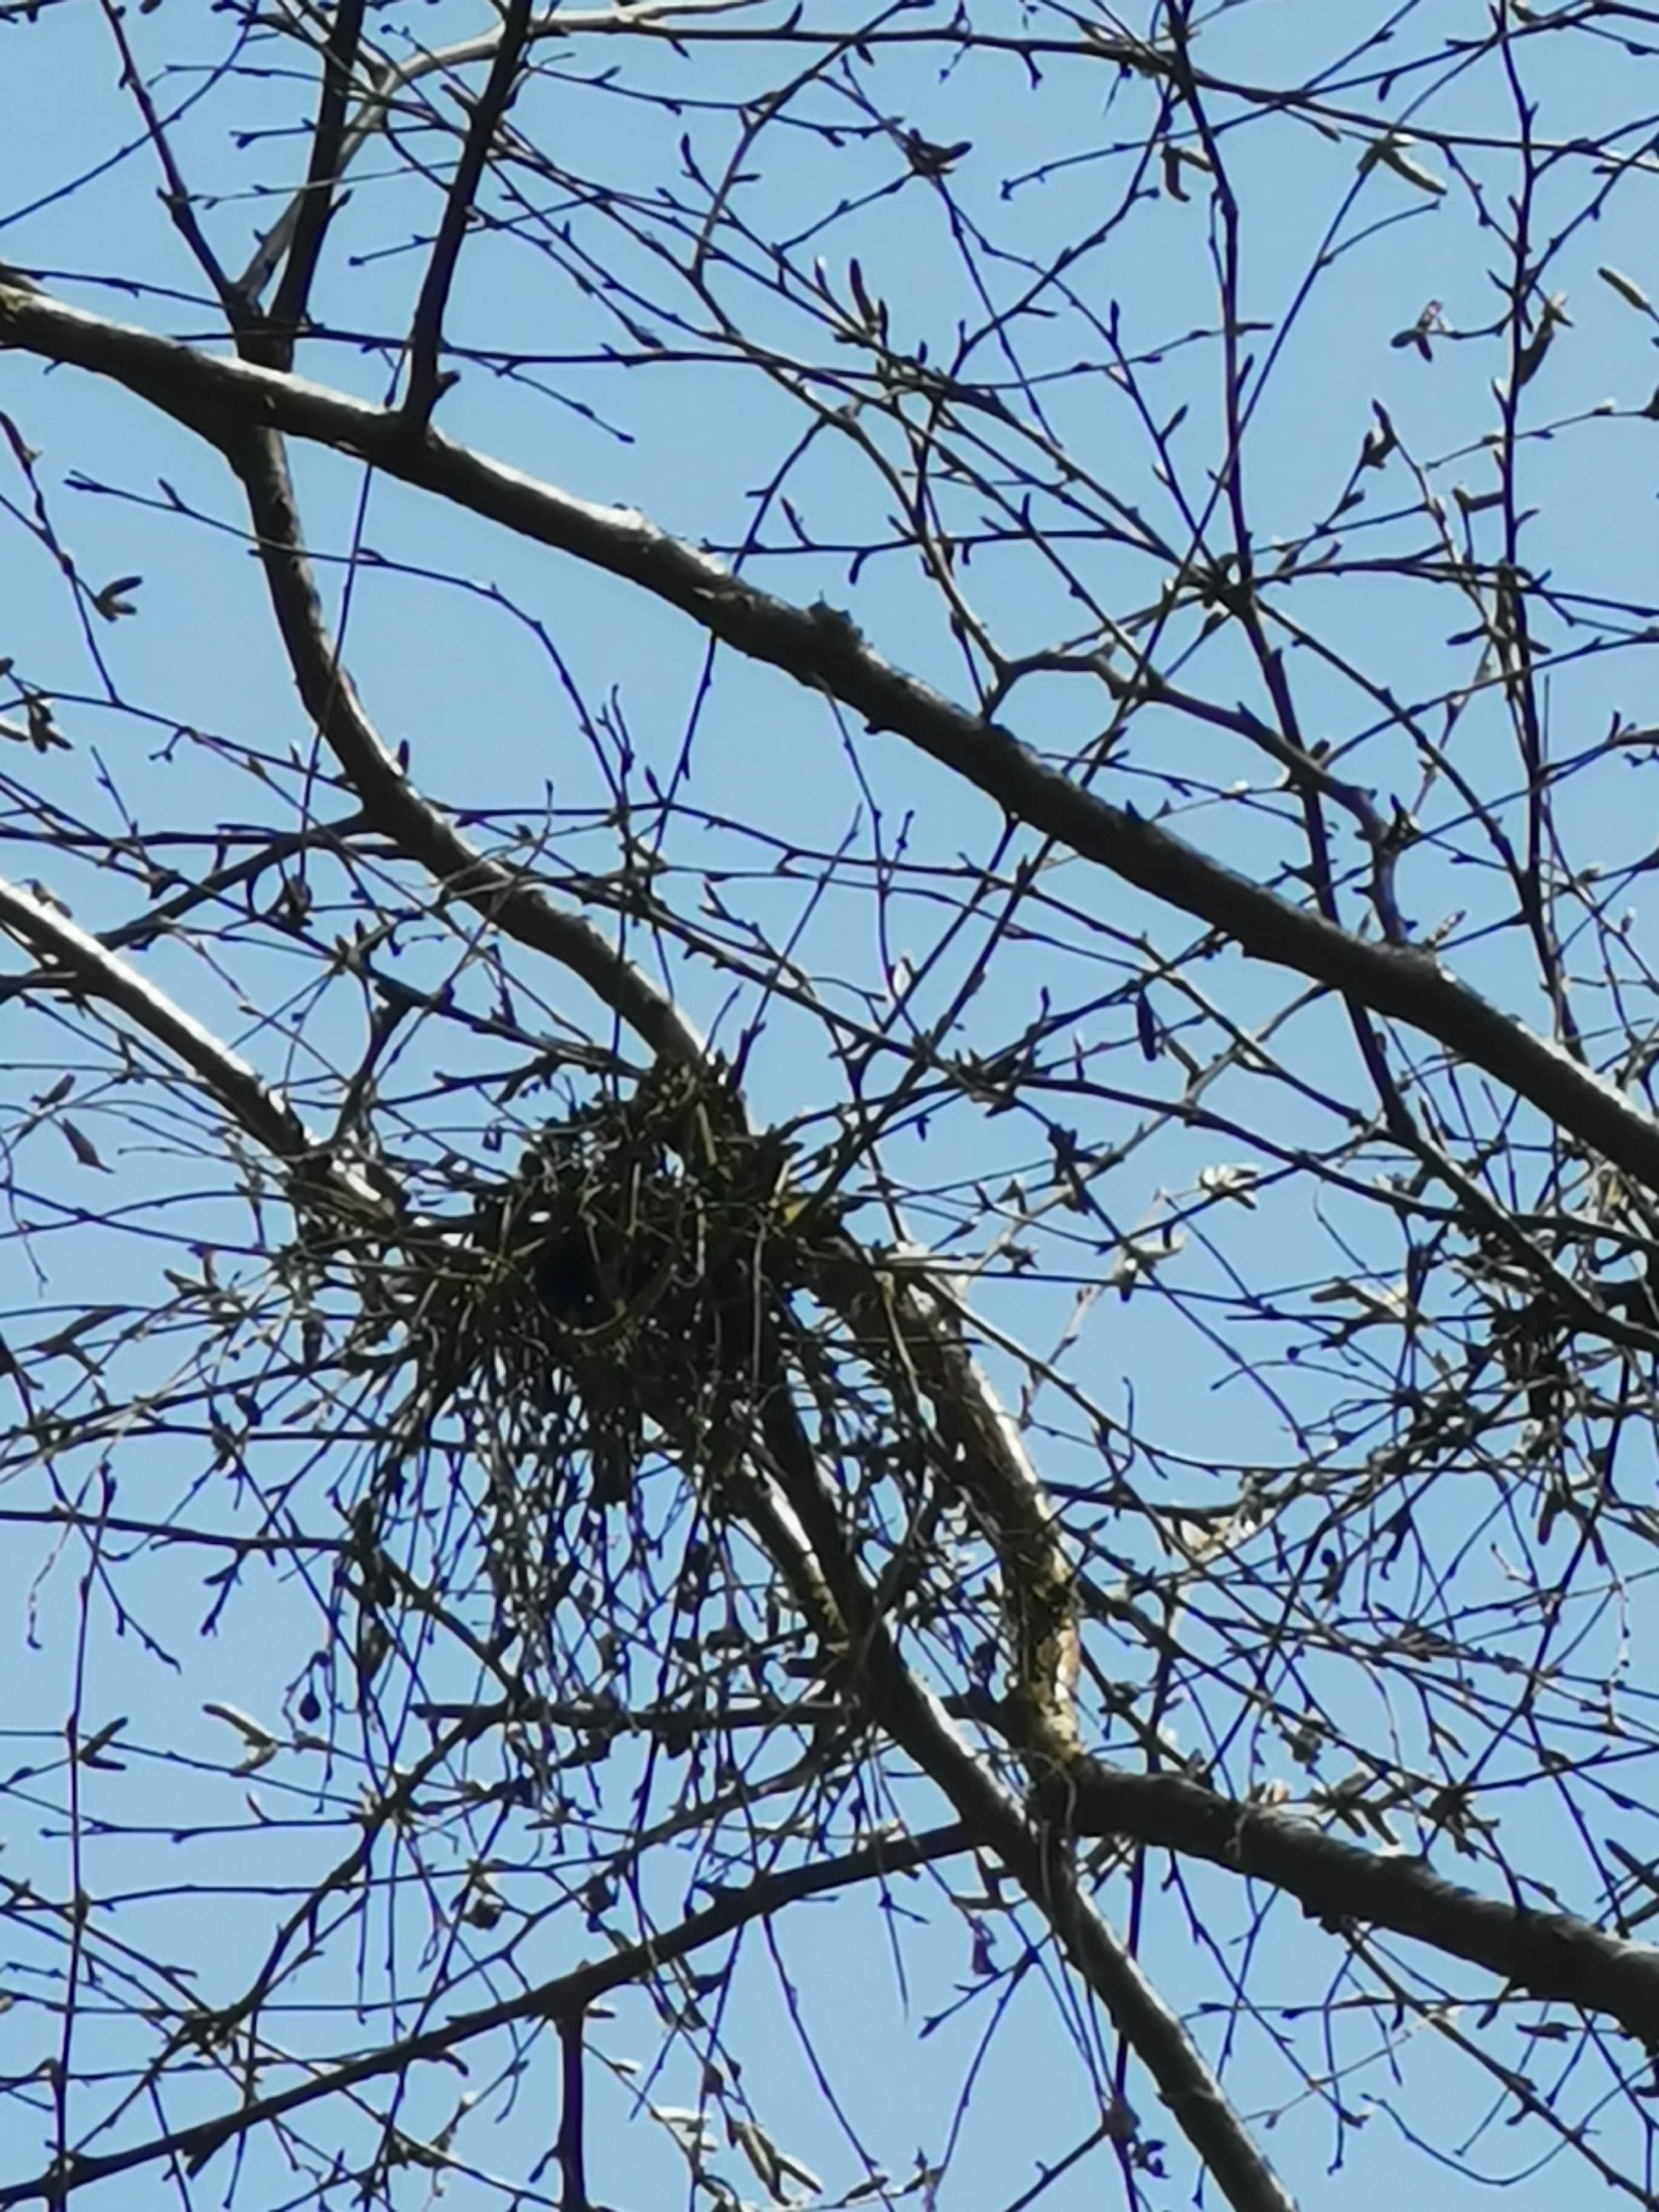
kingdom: Fungi
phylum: Ascomycota
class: Taphrinomycetes
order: Taphrinales
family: Taphrinaceae
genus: Taphrina
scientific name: Taphrina betulina
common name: hekse-sækdug
